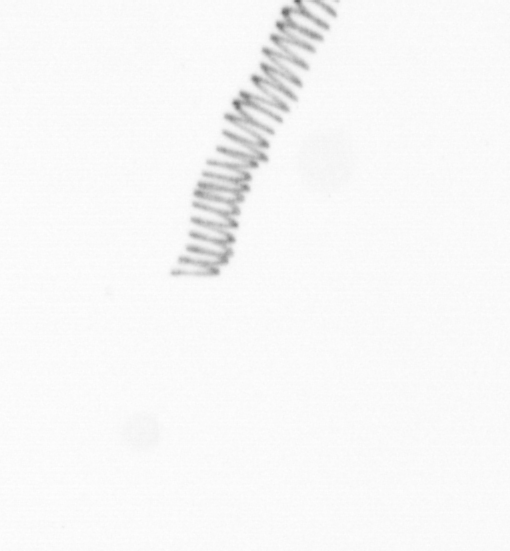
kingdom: Chromista
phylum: Ochrophyta
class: Bacillariophyceae
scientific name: Bacillariophyceae
